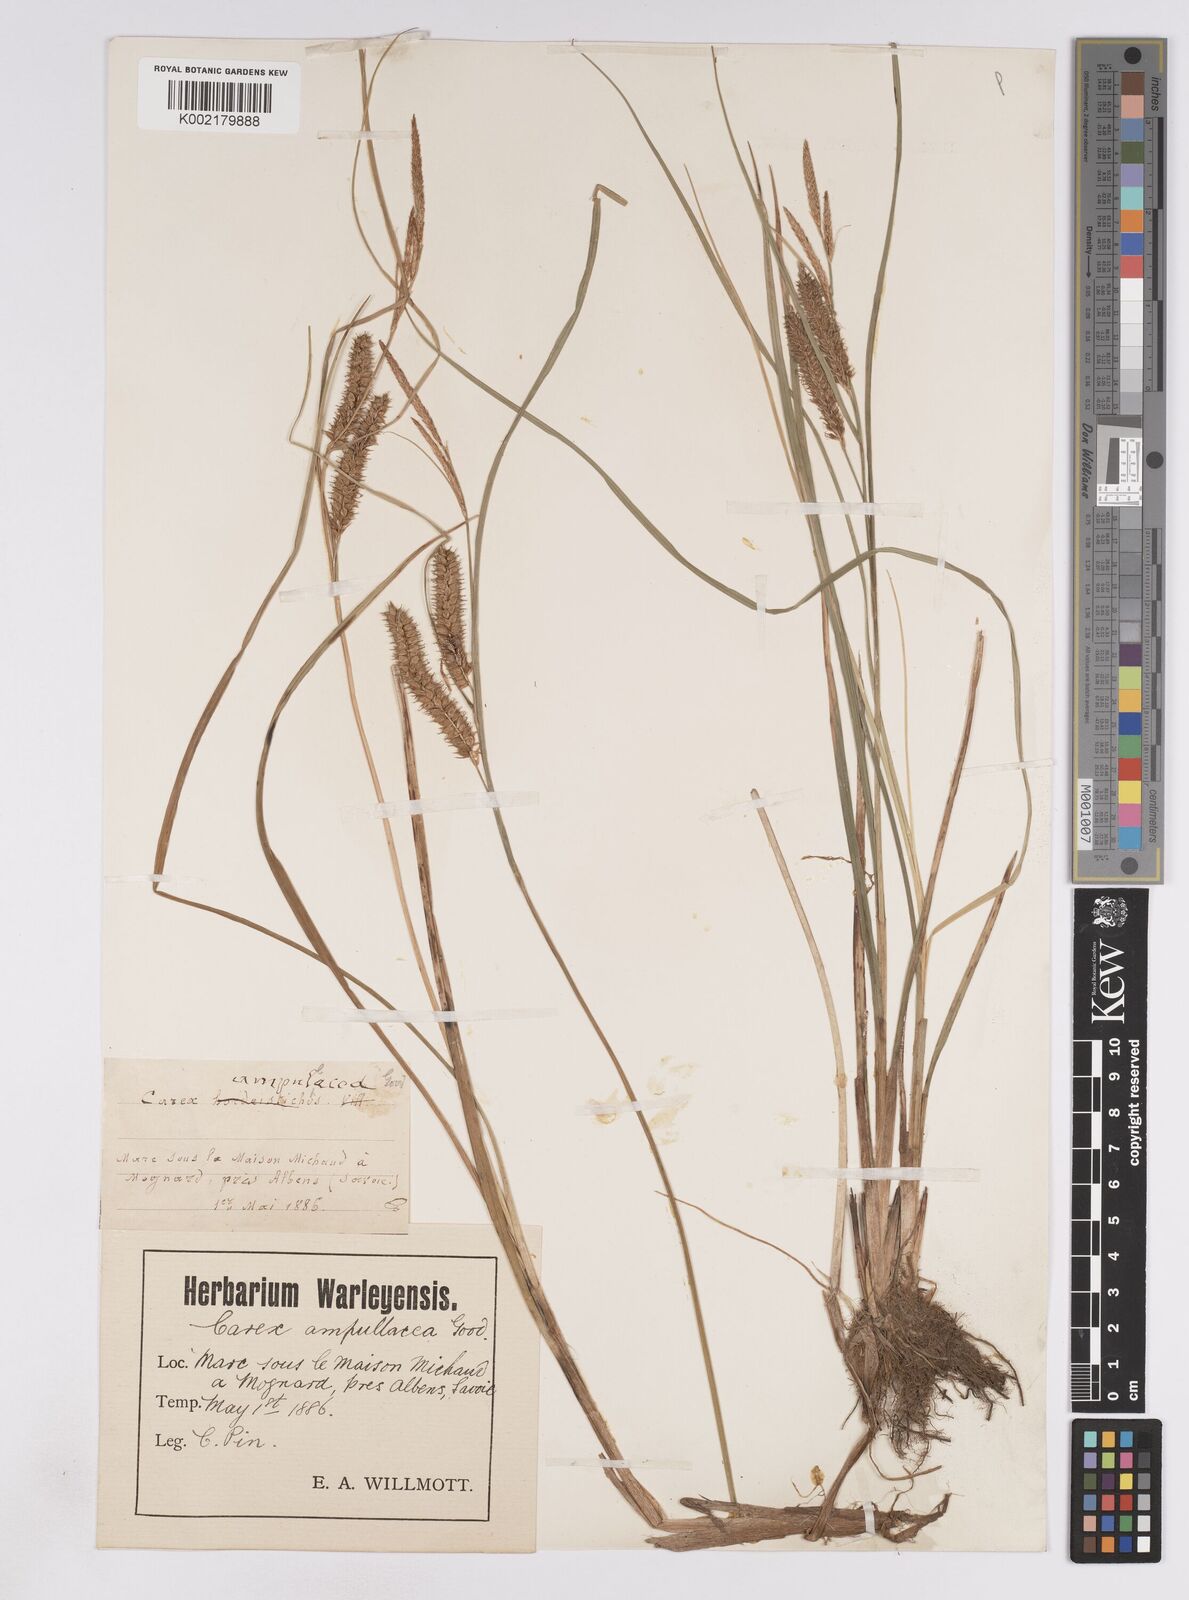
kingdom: Plantae
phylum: Tracheophyta
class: Liliopsida
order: Poales
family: Cyperaceae
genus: Carex
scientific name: Carex rostrata
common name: Bottle sedge
